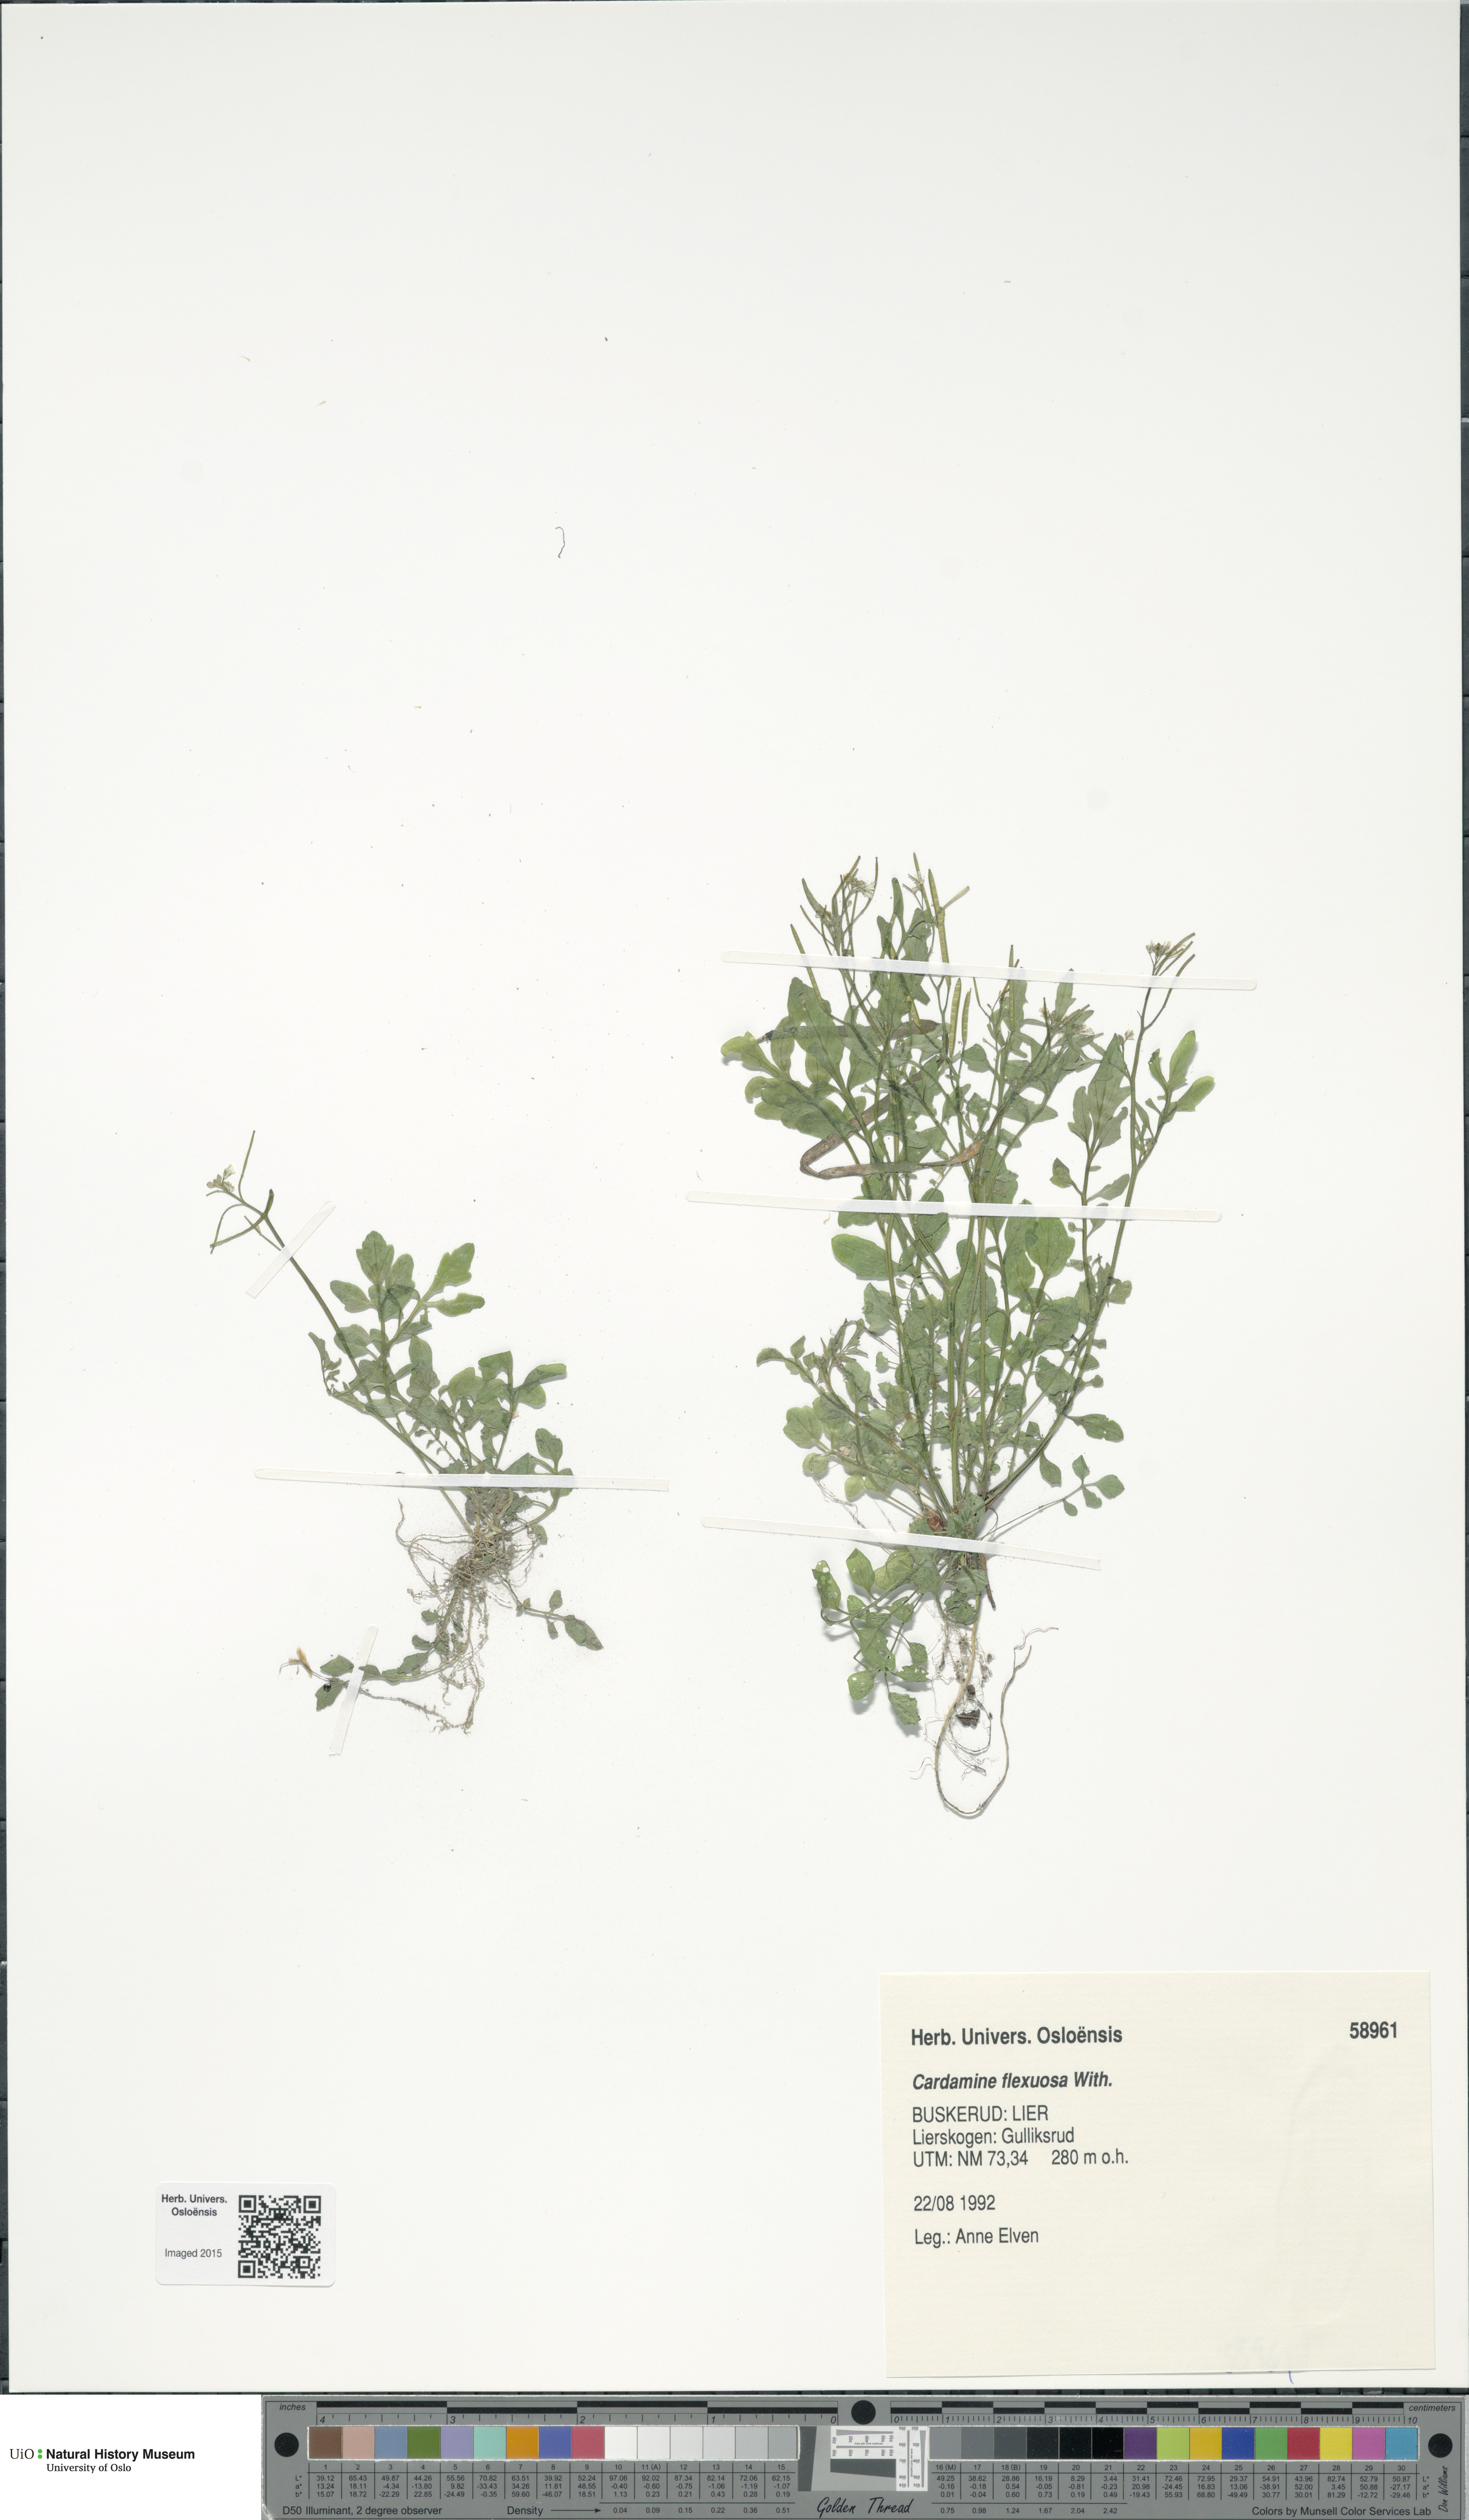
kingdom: Plantae
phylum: Tracheophyta
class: Magnoliopsida
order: Brassicales
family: Brassicaceae
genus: Cardamine
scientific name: Cardamine flexuosa
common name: Woodland bittercress
